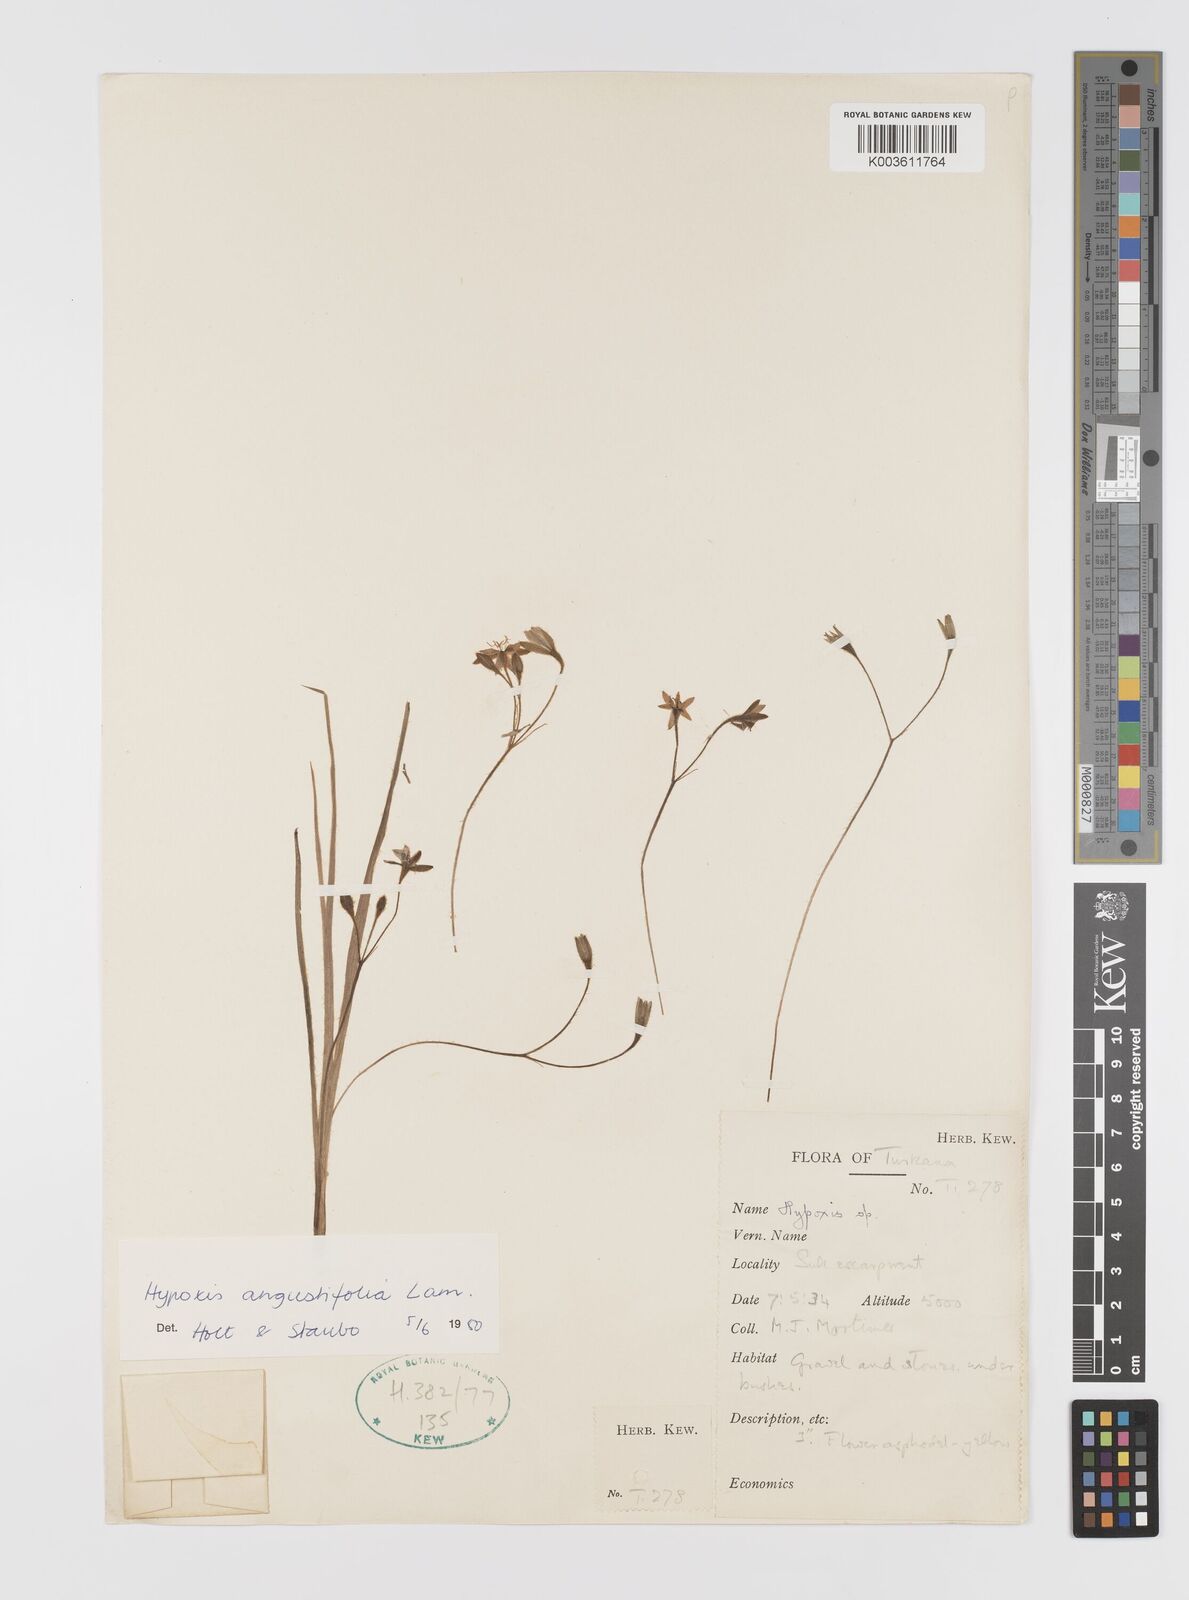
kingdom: Plantae
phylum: Tracheophyta
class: Liliopsida
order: Asparagales
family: Hypoxidaceae
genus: Hypoxis
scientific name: Hypoxis angustifolia
